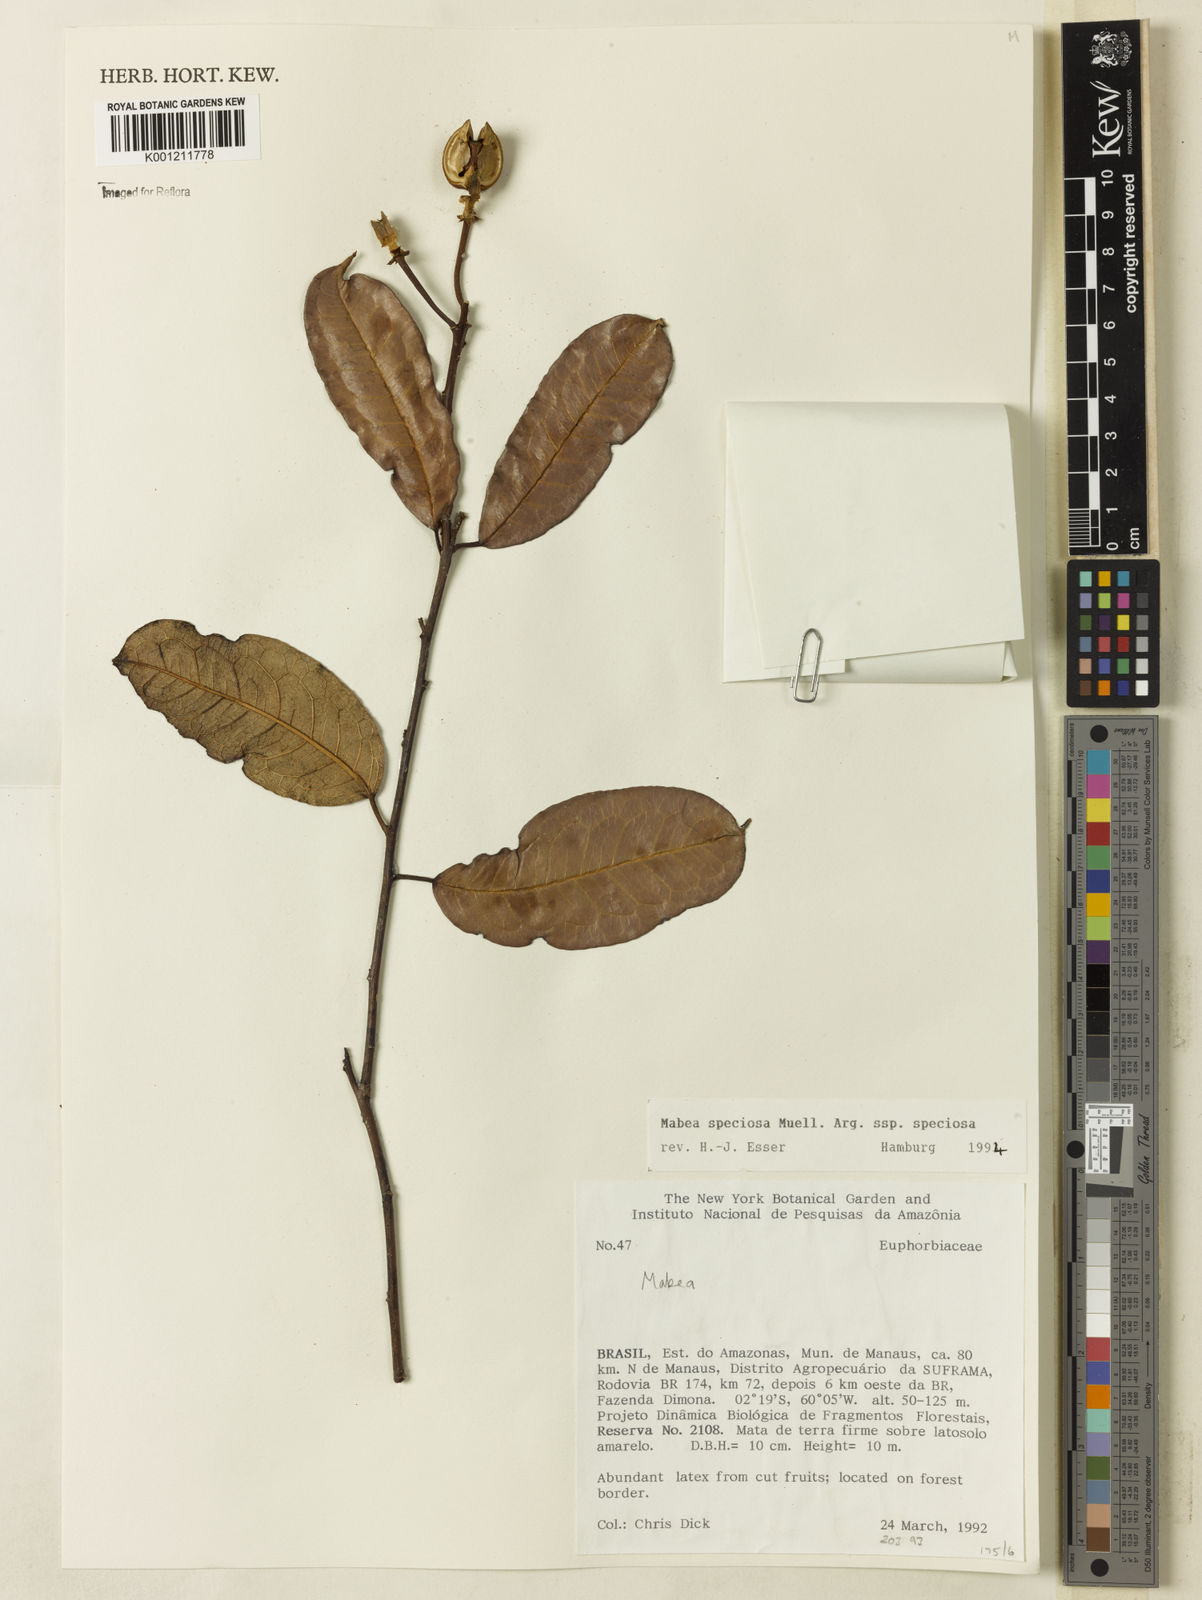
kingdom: Plantae
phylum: Tracheophyta
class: Magnoliopsida
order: Malpighiales
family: Euphorbiaceae
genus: Mabea
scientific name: Mabea
